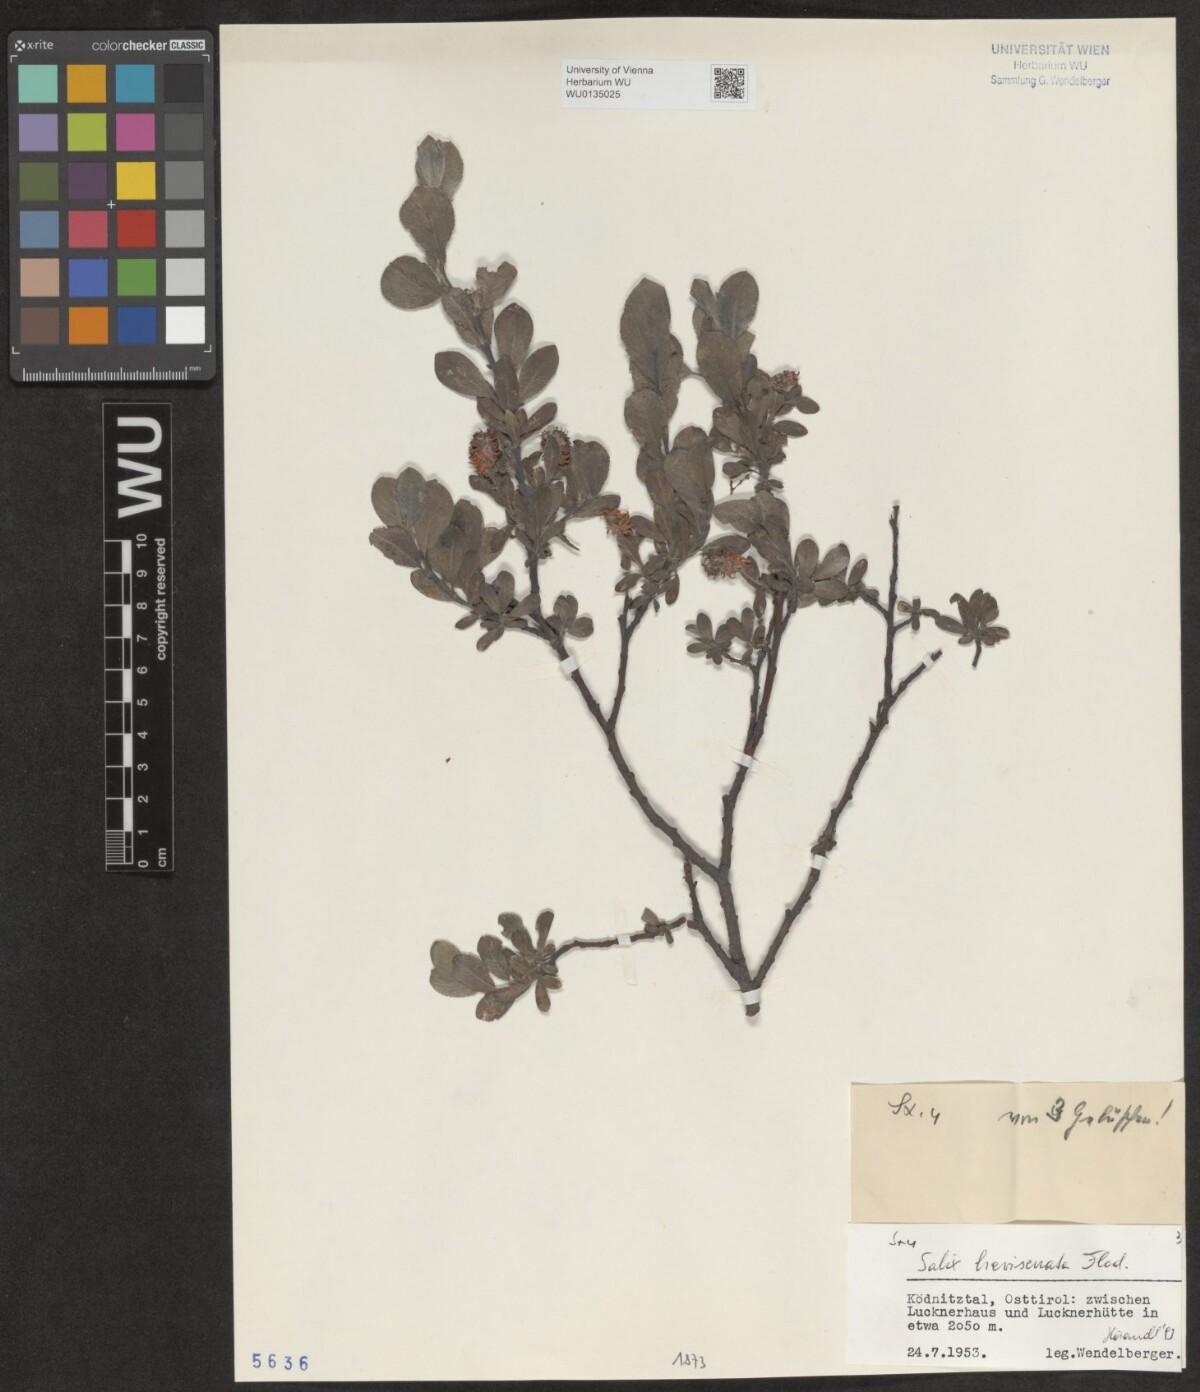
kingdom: Plantae
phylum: Tracheophyta
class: Magnoliopsida
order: Malpighiales
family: Salicaceae
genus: Salix
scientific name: Salix breviserrata
